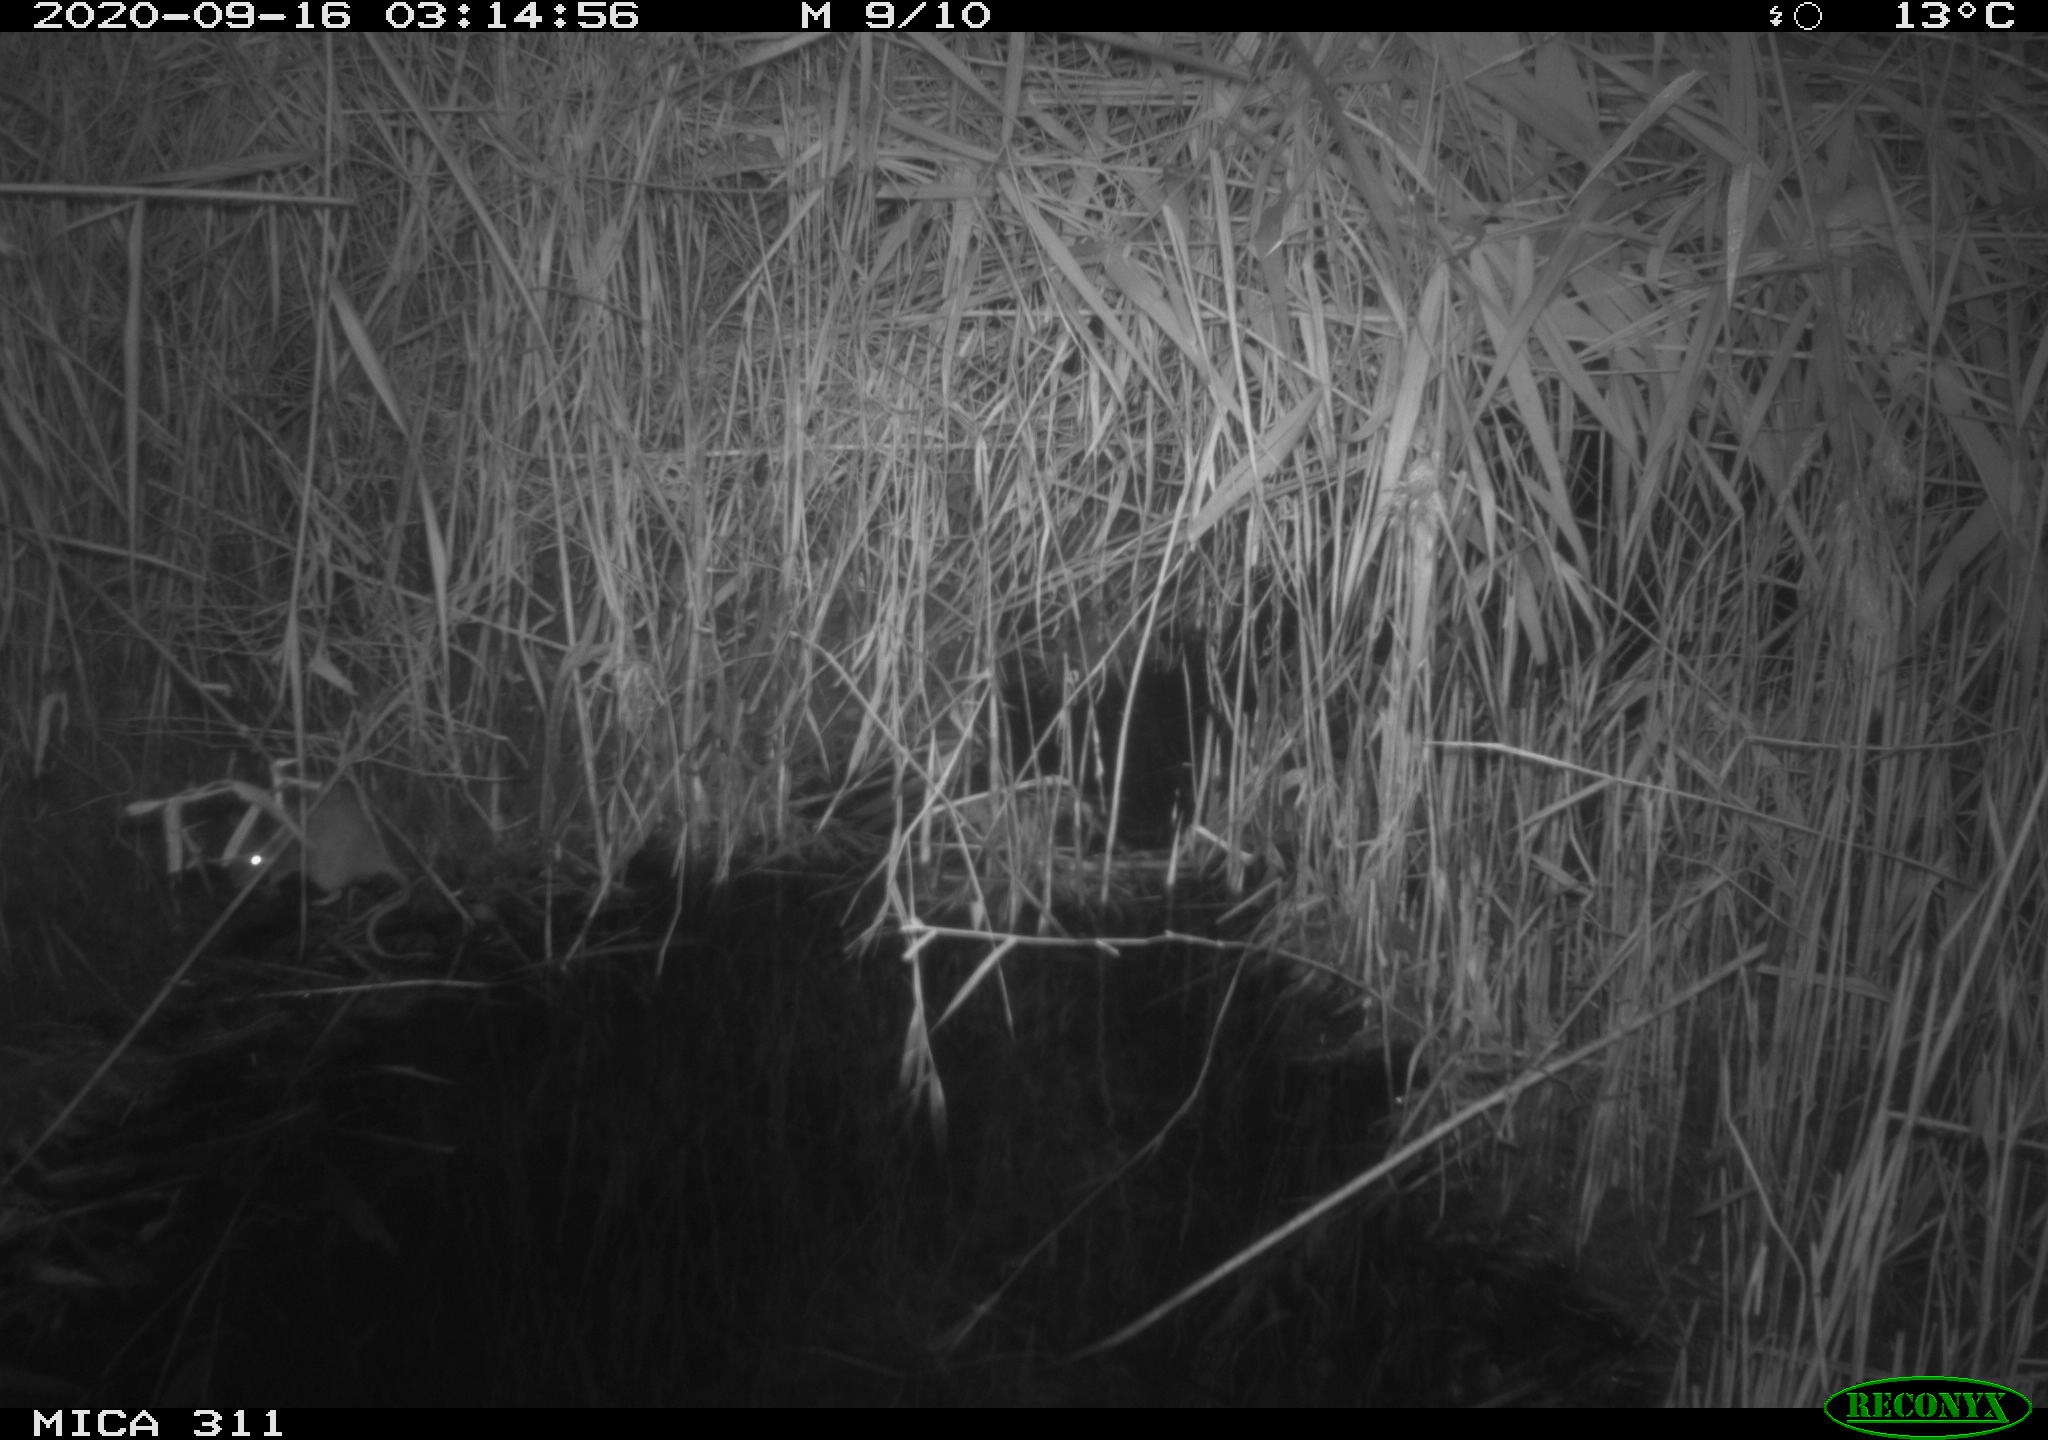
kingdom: Animalia
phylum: Chordata
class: Mammalia
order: Rodentia
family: Muridae
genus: Rattus
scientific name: Rattus norvegicus
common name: Brown rat
